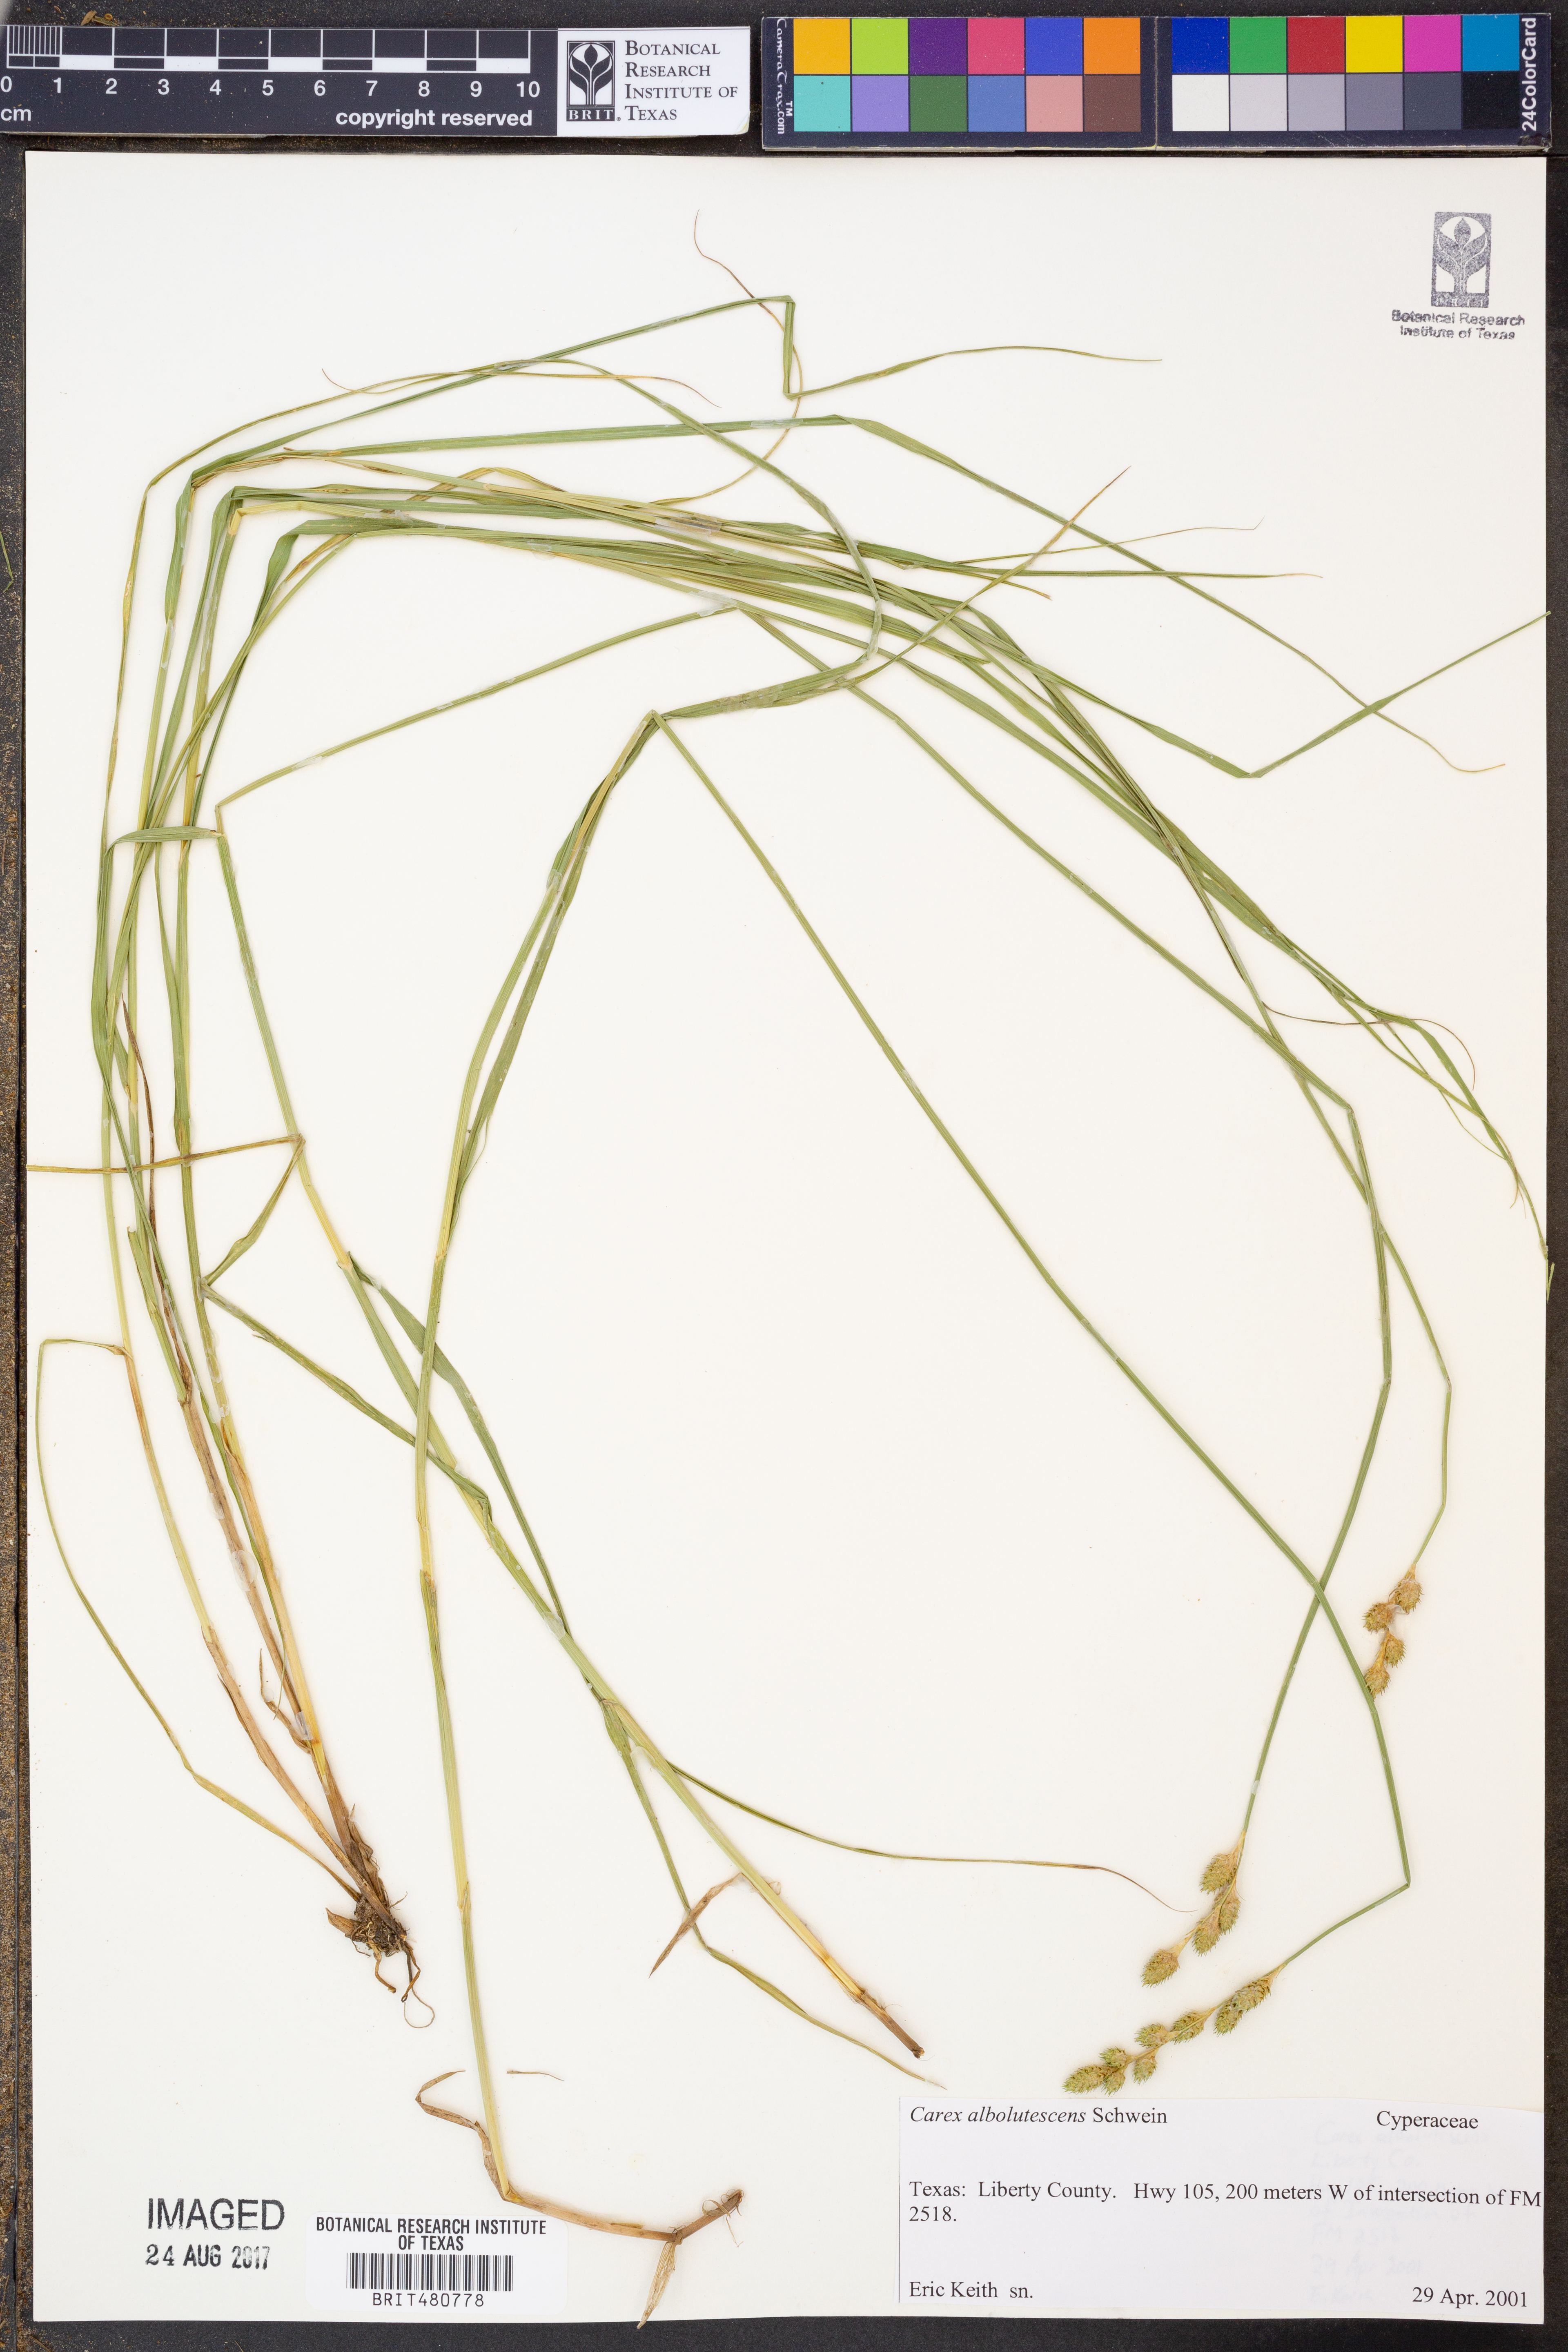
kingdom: Plantae
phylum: Tracheophyta
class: Liliopsida
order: Poales
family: Cyperaceae
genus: Carex
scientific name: Carex albolutescens
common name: Freenish white sedge
